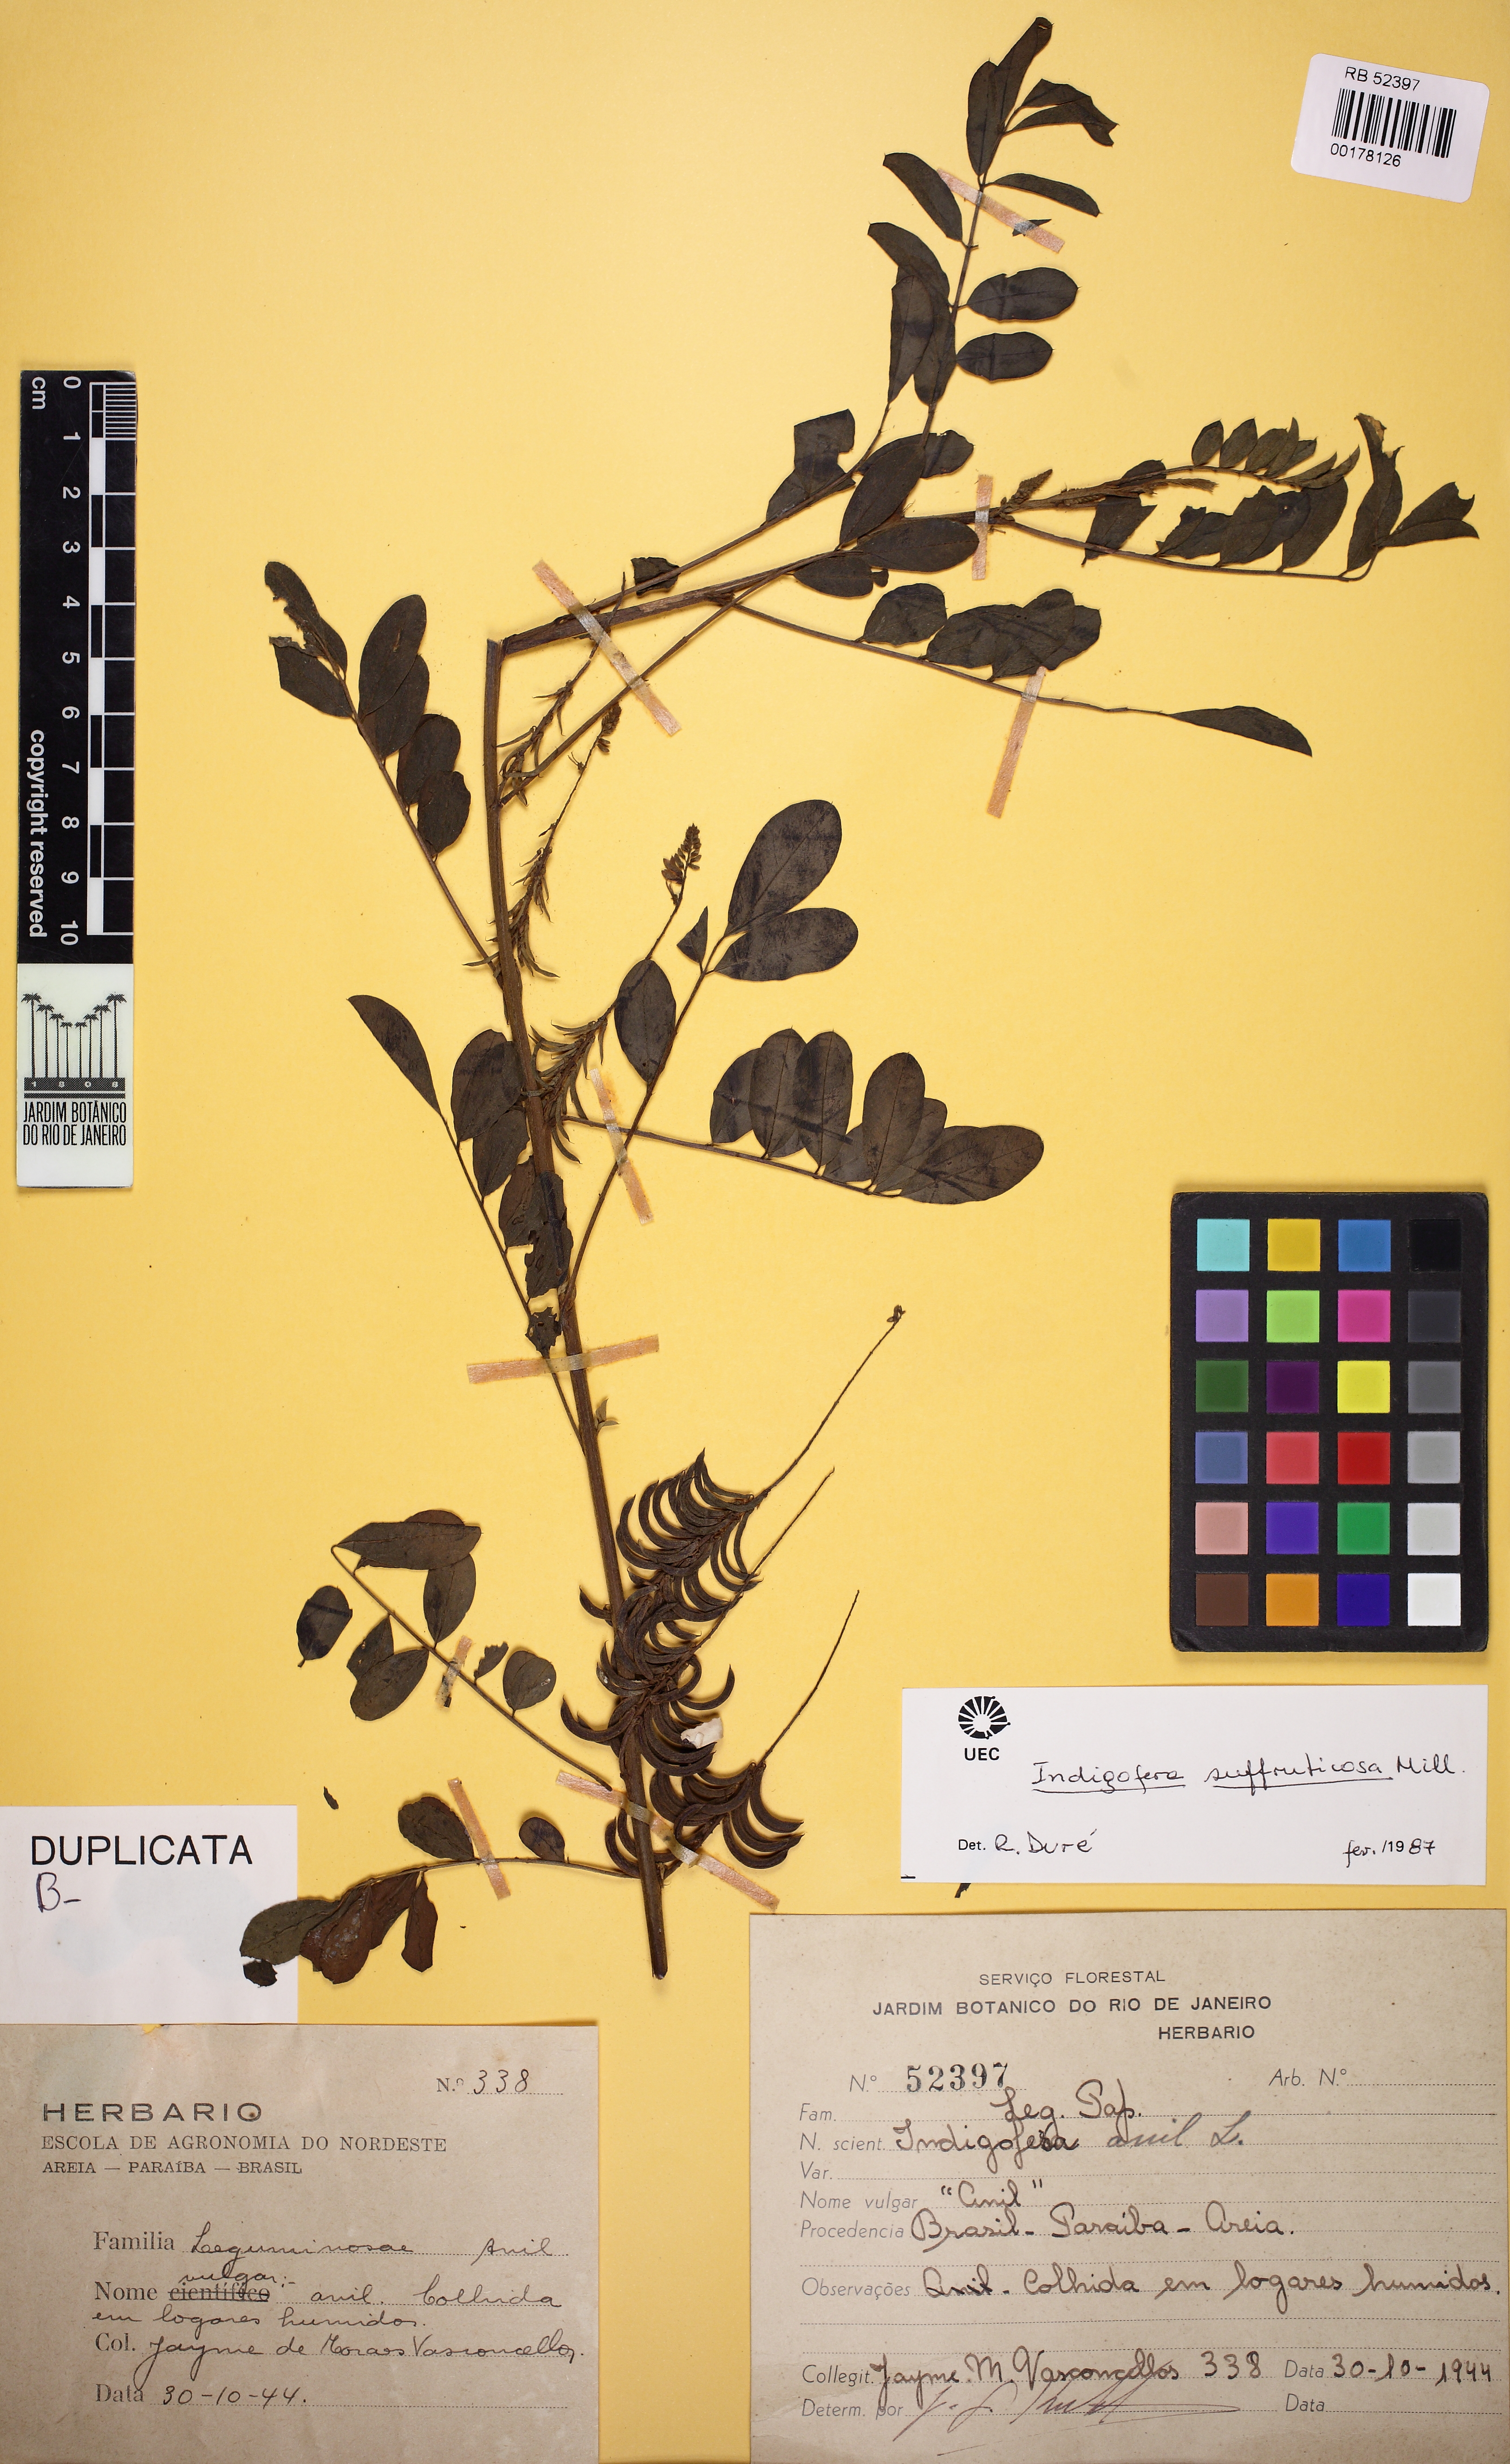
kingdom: Plantae
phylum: Tracheophyta
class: Magnoliopsida
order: Fabales
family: Fabaceae
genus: Indigofera
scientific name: Indigofera suffruticosa
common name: Anil de pasto
